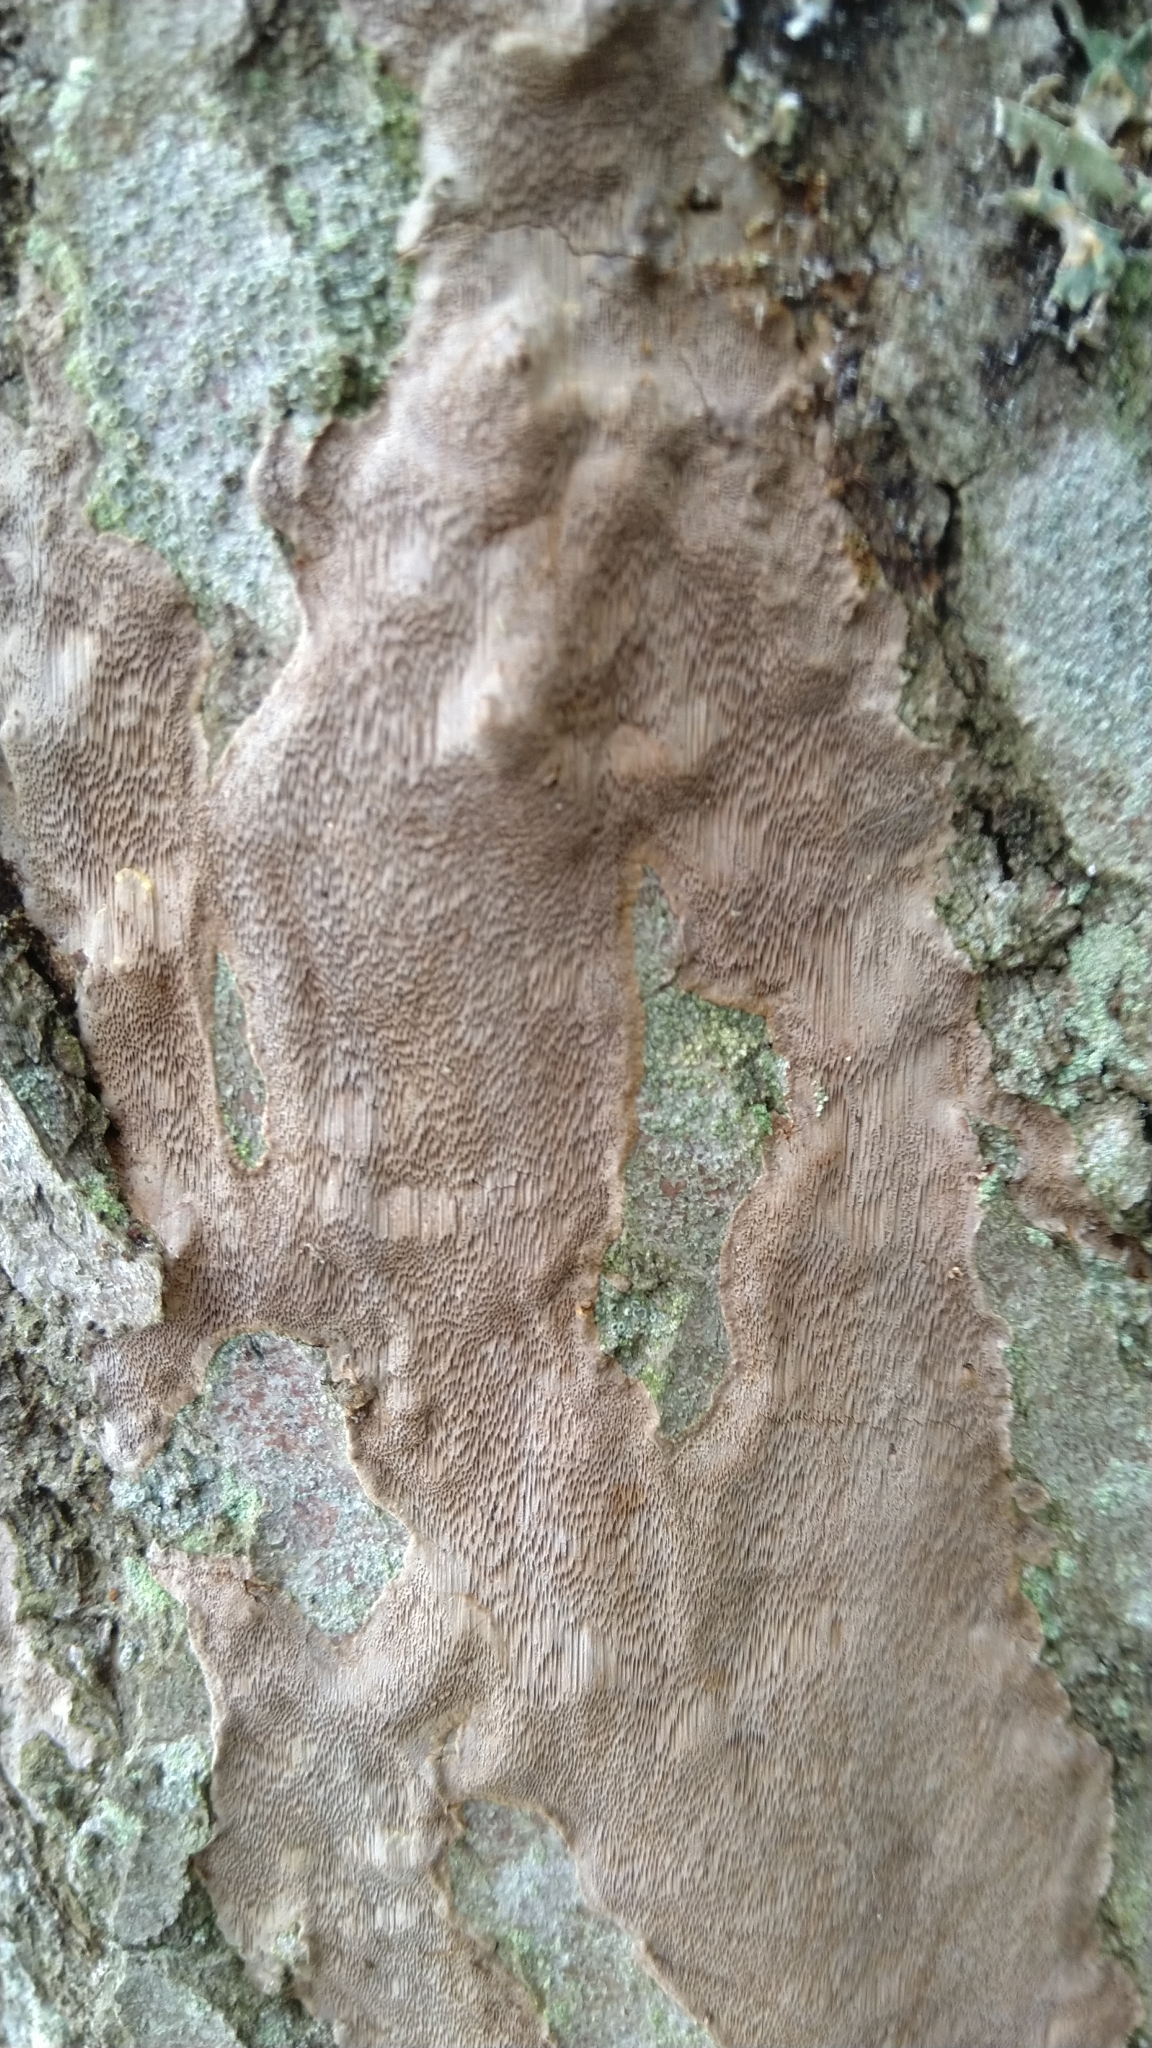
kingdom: Fungi
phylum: Basidiomycota
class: Agaricomycetes
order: Hymenochaetales
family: Hymenochaetaceae
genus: Phellinopsis
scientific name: Phellinopsis conchata
